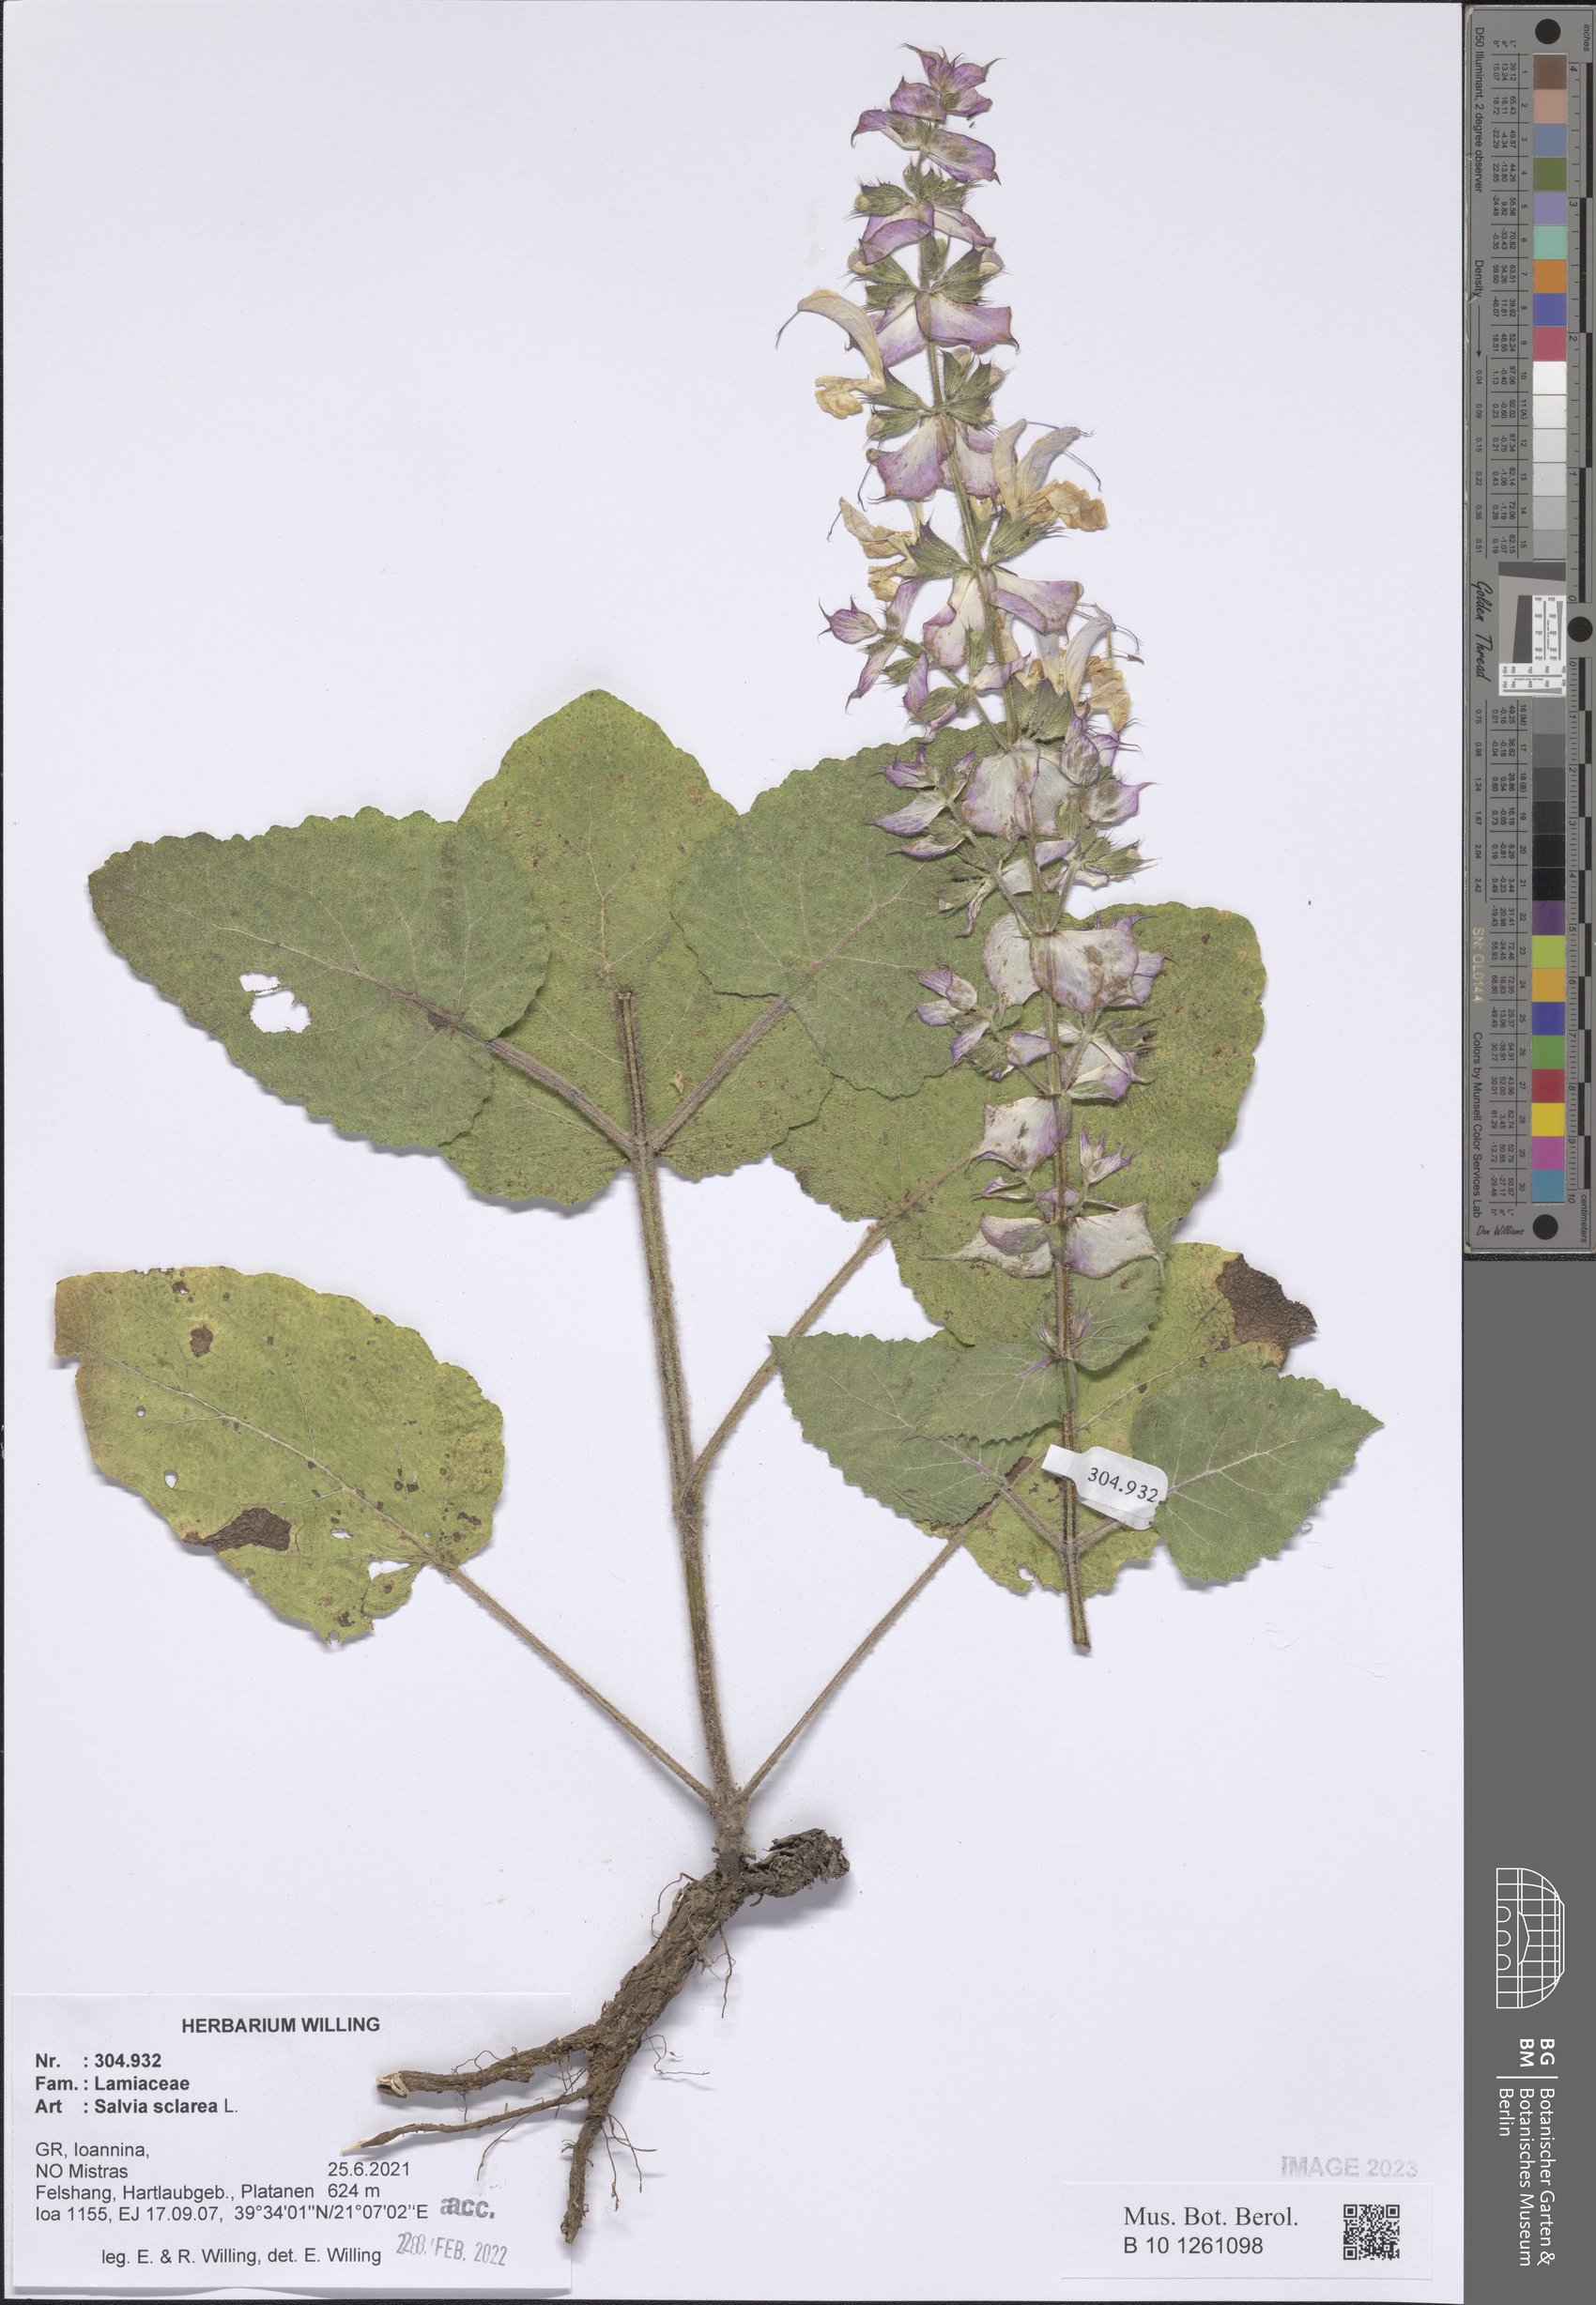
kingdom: Plantae
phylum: Tracheophyta
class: Magnoliopsida
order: Lamiales
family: Lamiaceae
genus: Salvia
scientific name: Salvia sclarea
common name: Clary
